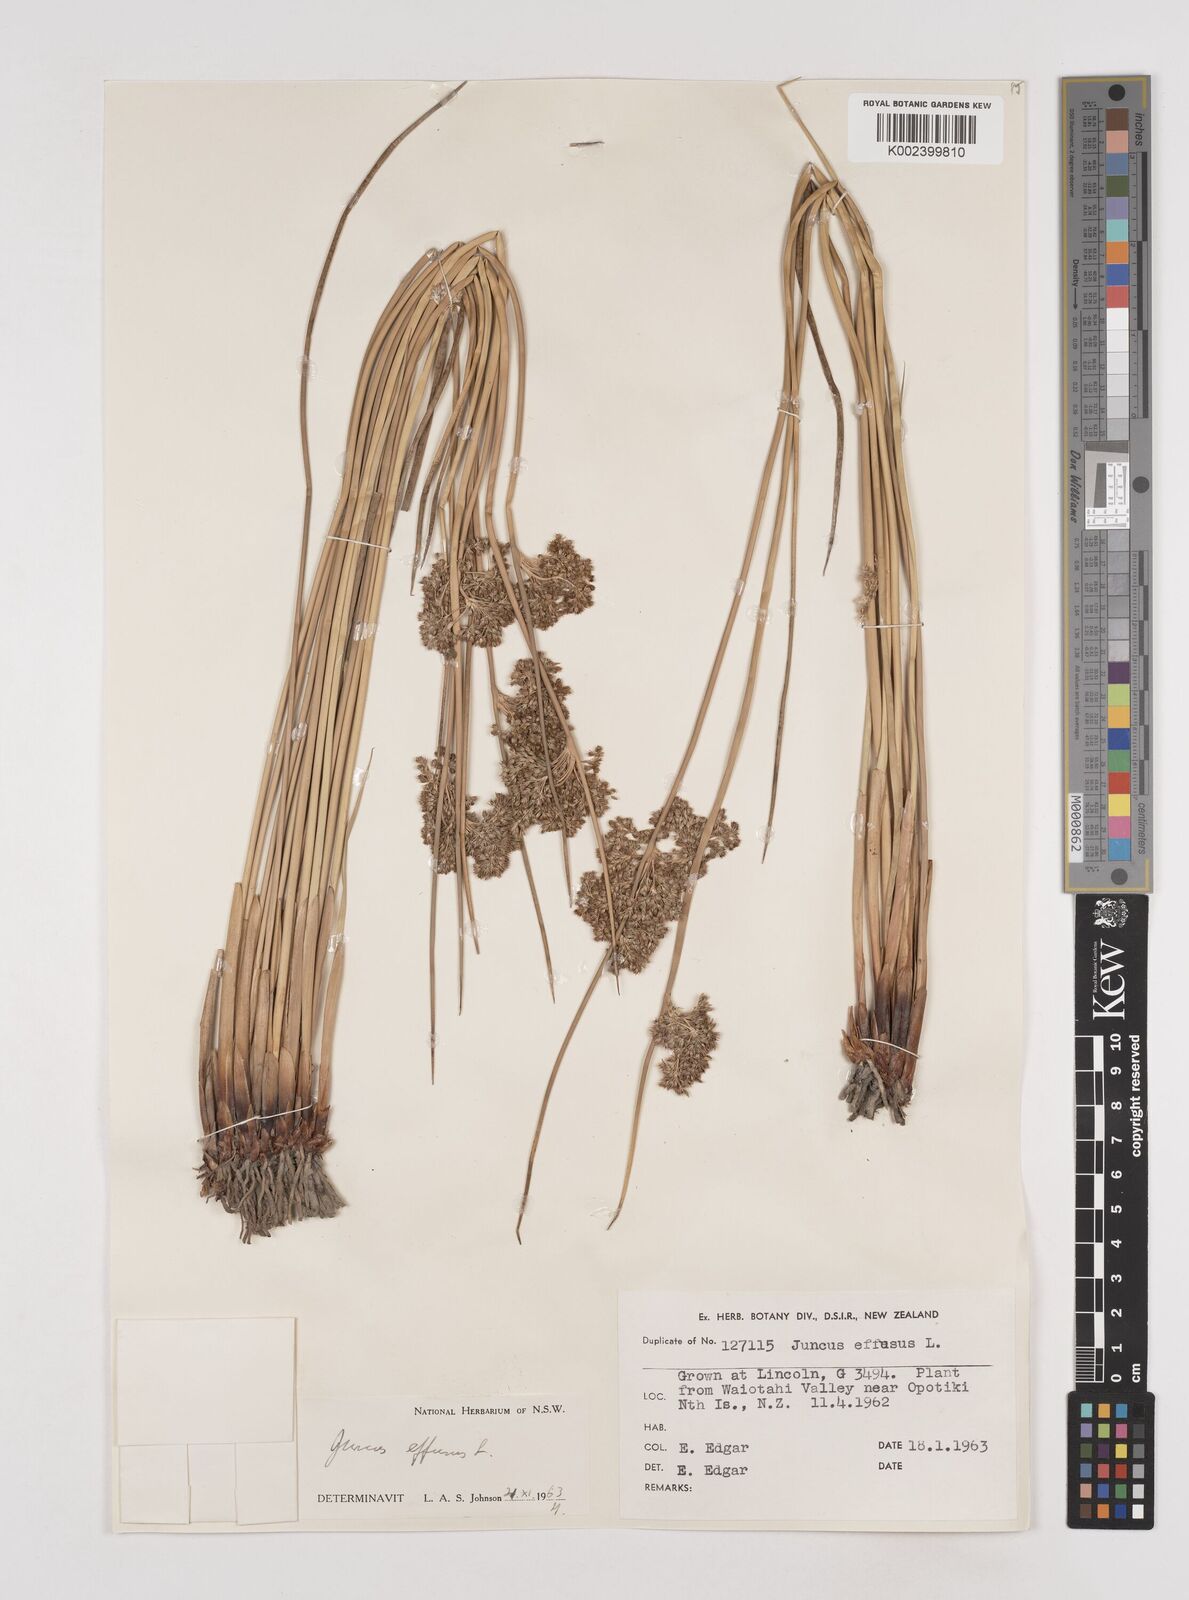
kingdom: Plantae
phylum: Tracheophyta
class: Liliopsida
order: Poales
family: Juncaceae
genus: Juncus
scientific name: Juncus effusus
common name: Soft rush
